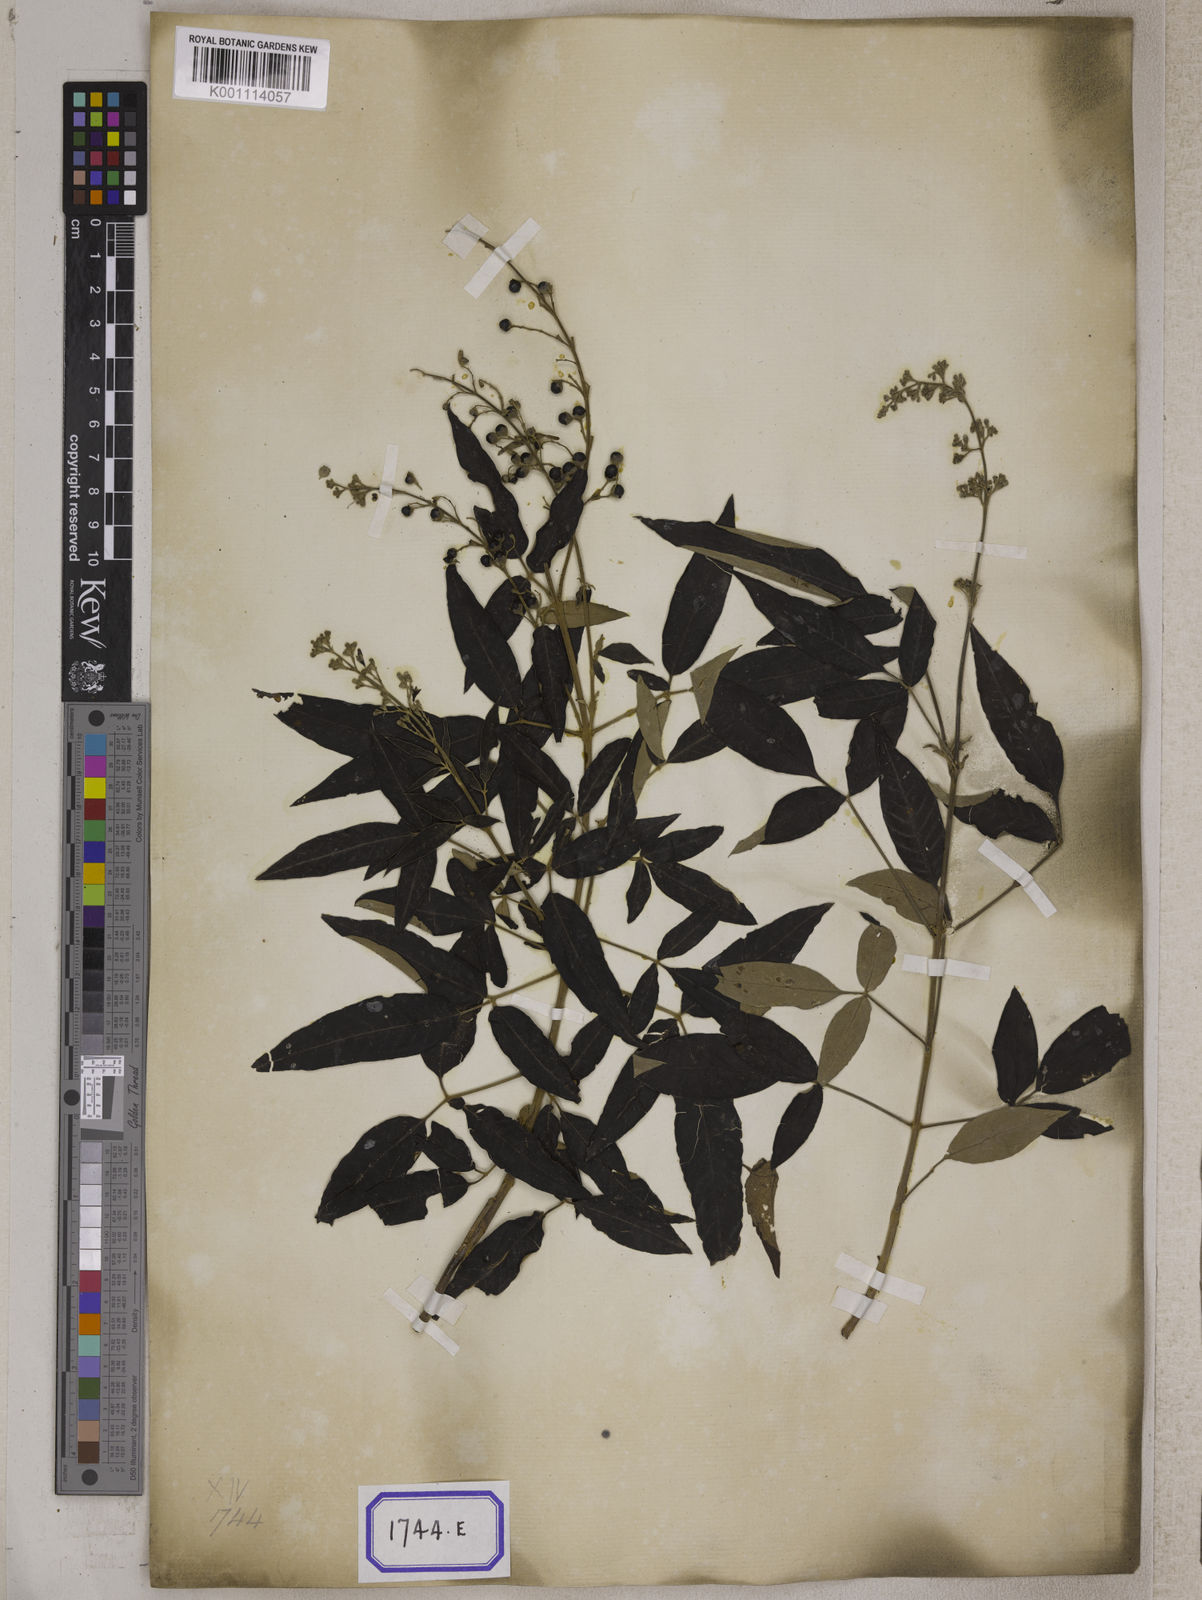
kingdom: Plantae
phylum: Tracheophyta
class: Magnoliopsida
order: Lamiales
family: Lamiaceae
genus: Vitex
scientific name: Vitex negundo
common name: Chinese chastetree
